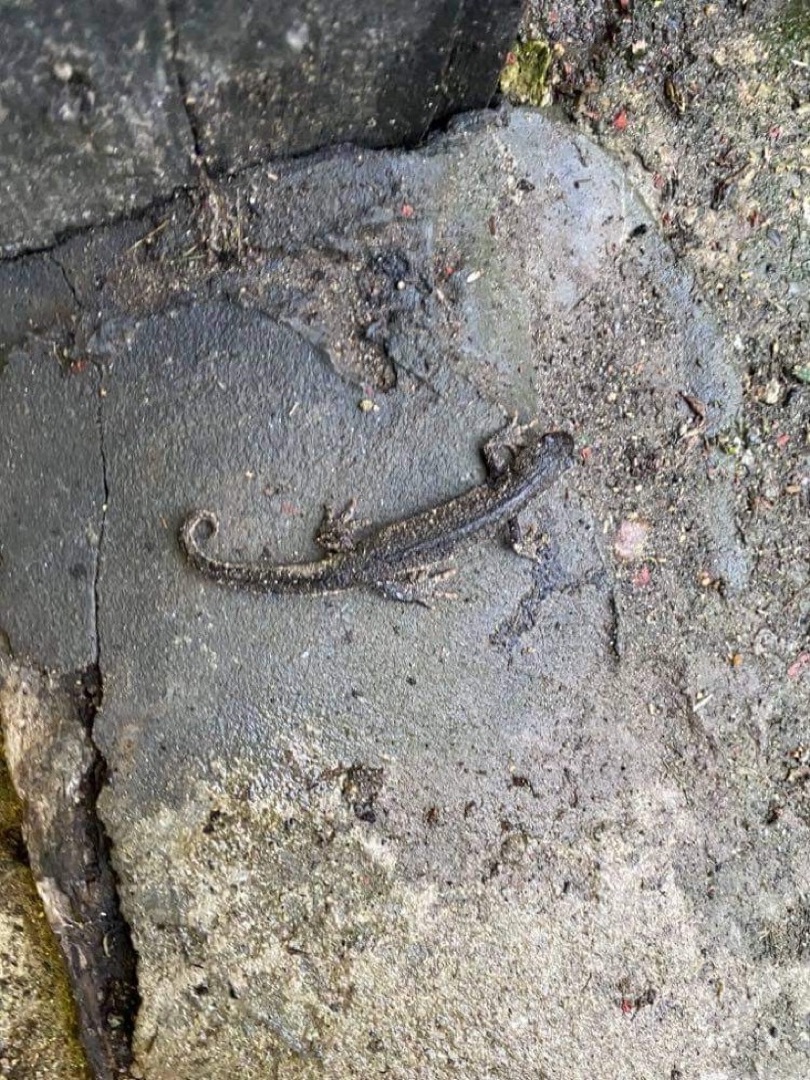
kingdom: Animalia
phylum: Chordata
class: Amphibia
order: Caudata
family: Salamandridae
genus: Triturus
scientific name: Triturus cristatus
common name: Stor vandsalamander
